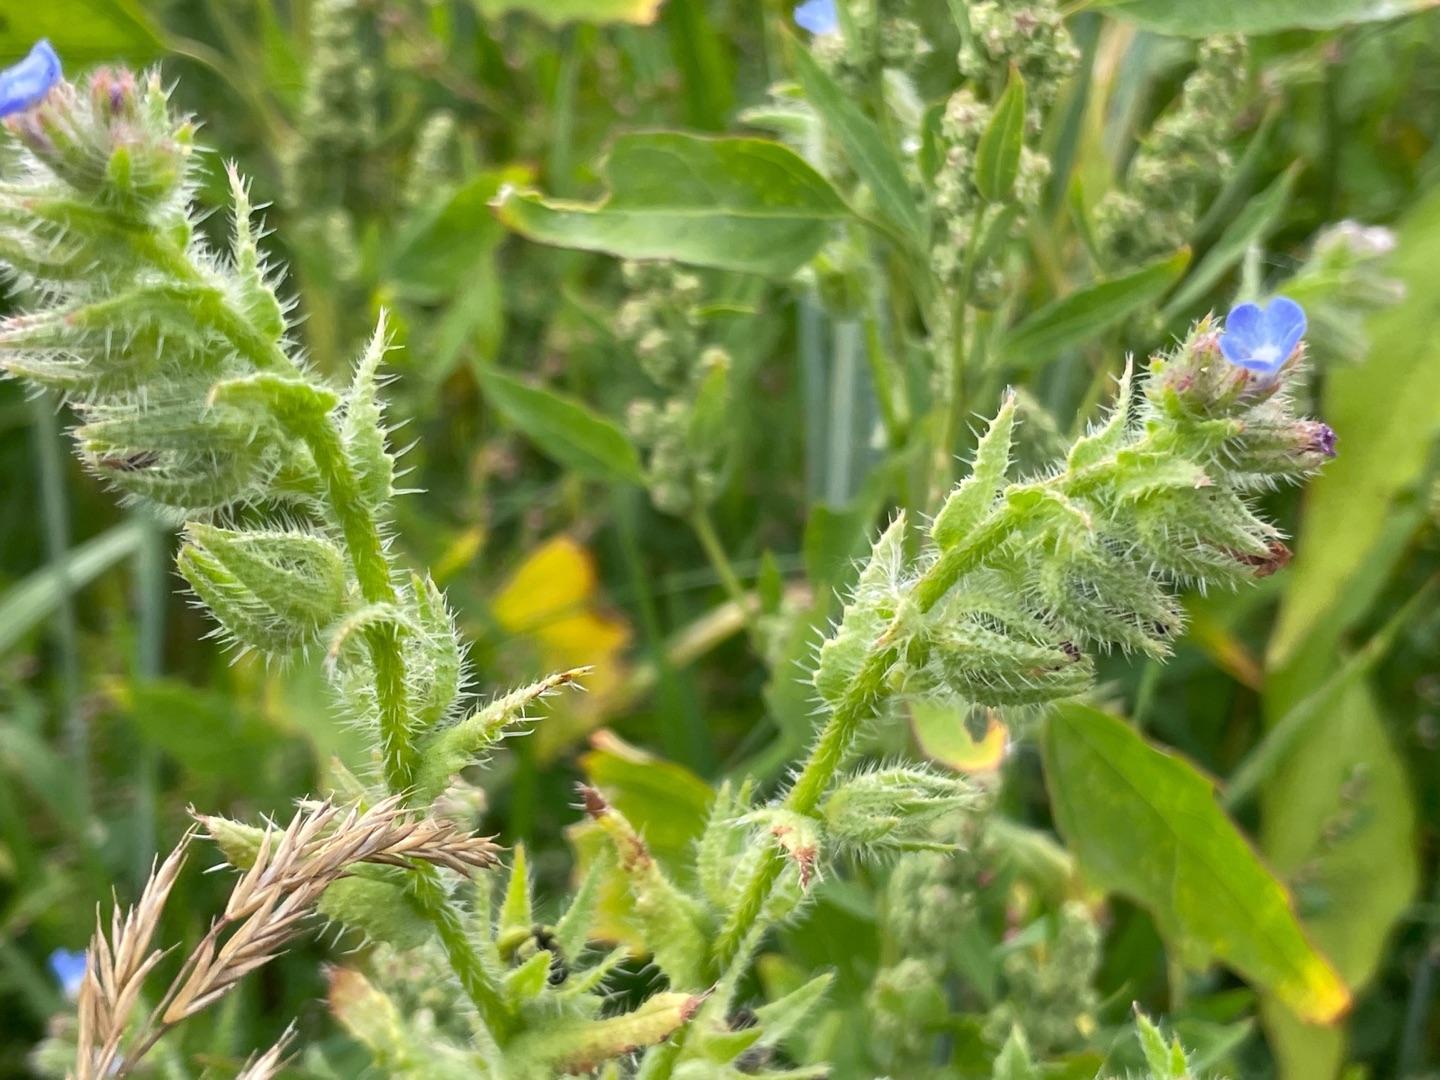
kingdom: Plantae
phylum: Tracheophyta
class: Magnoliopsida
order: Boraginales
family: Boraginaceae
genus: Lycopsis
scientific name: Lycopsis arvensis
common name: Krumhals
